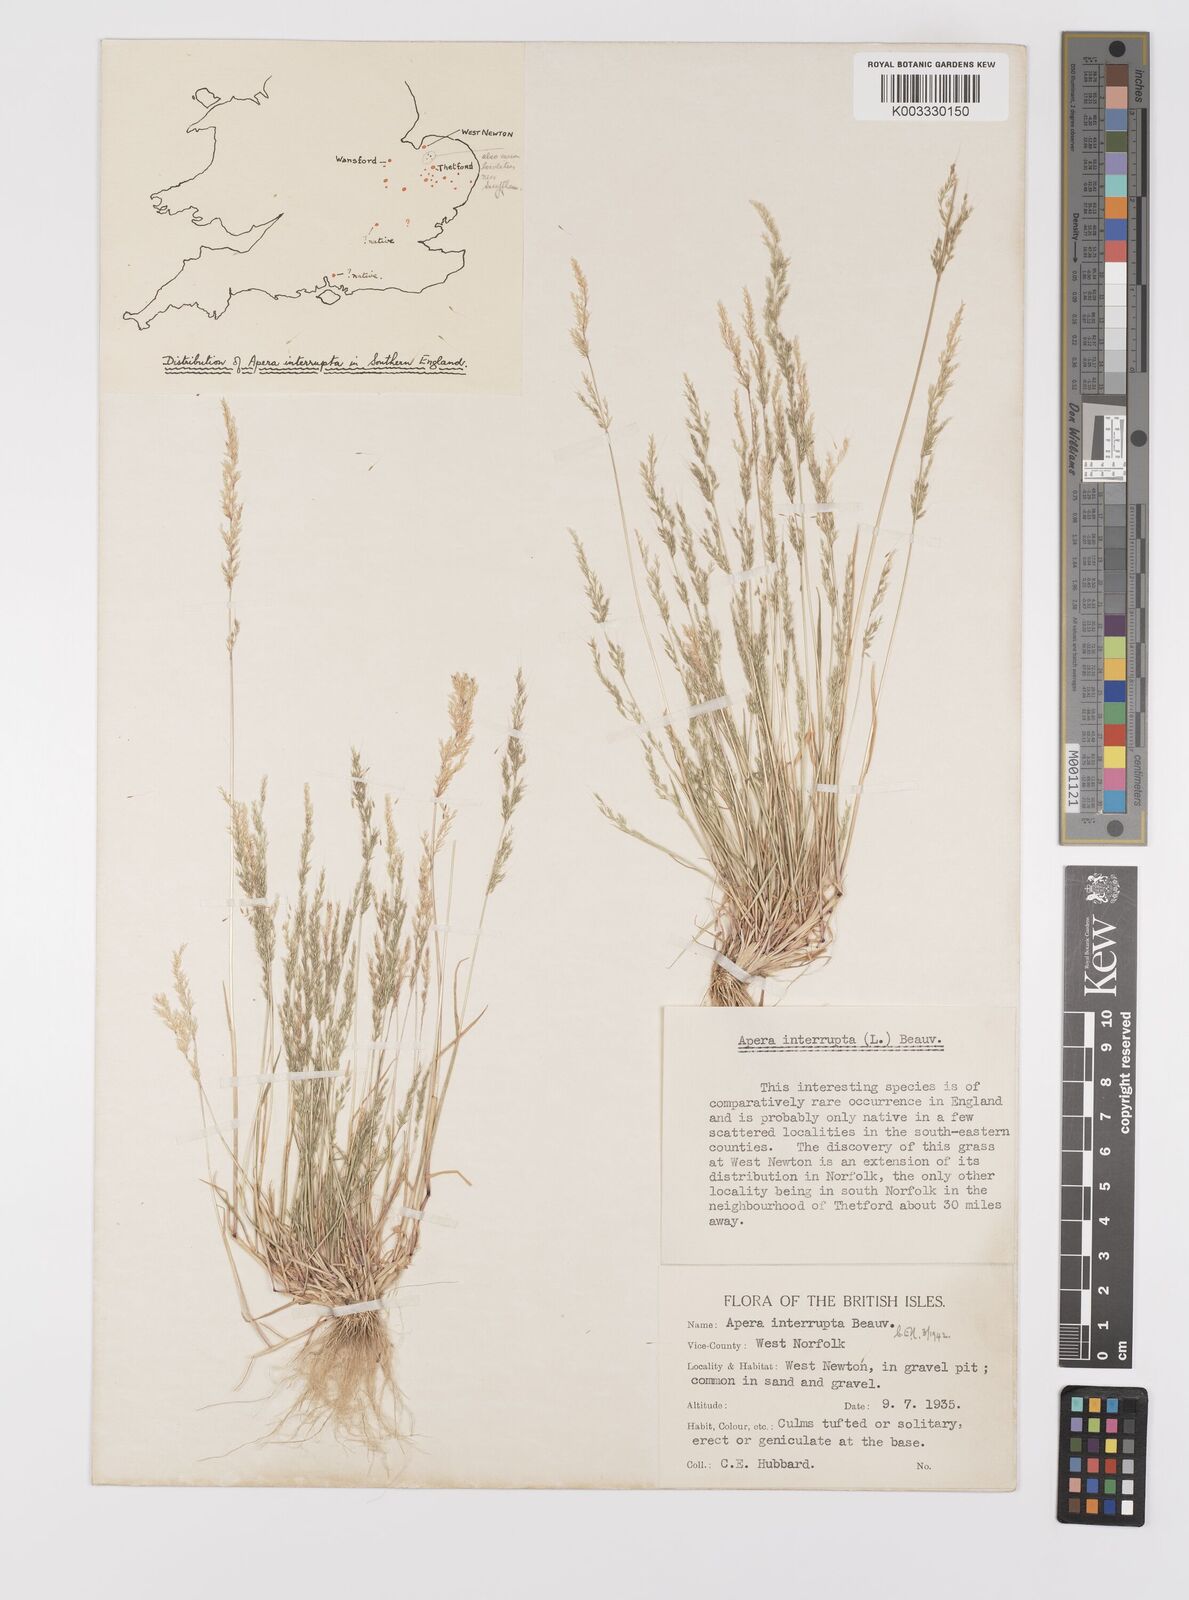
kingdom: Plantae
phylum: Tracheophyta
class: Liliopsida
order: Poales
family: Poaceae
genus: Apera
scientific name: Apera interrupta
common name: Dense silky-bent
